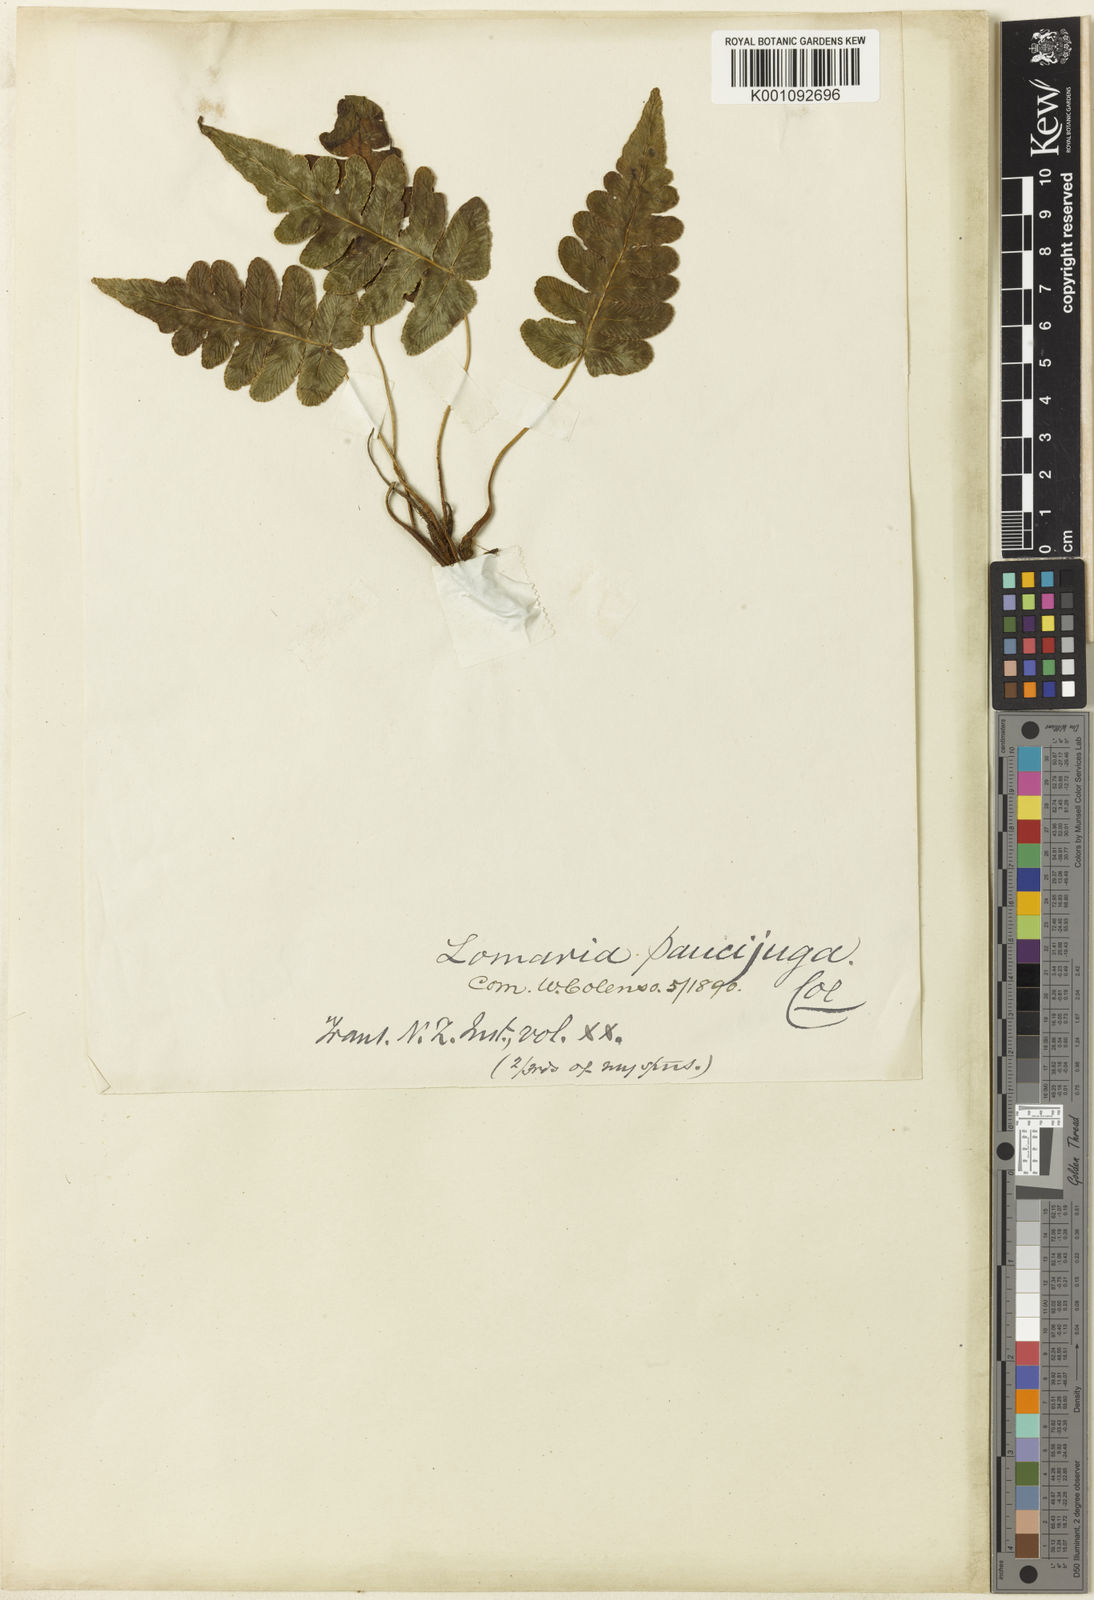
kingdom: Plantae
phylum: Tracheophyta
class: Polypodiopsida
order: Polypodiales
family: Blechnaceae
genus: Cranfillia
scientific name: Cranfillia vulcanica
